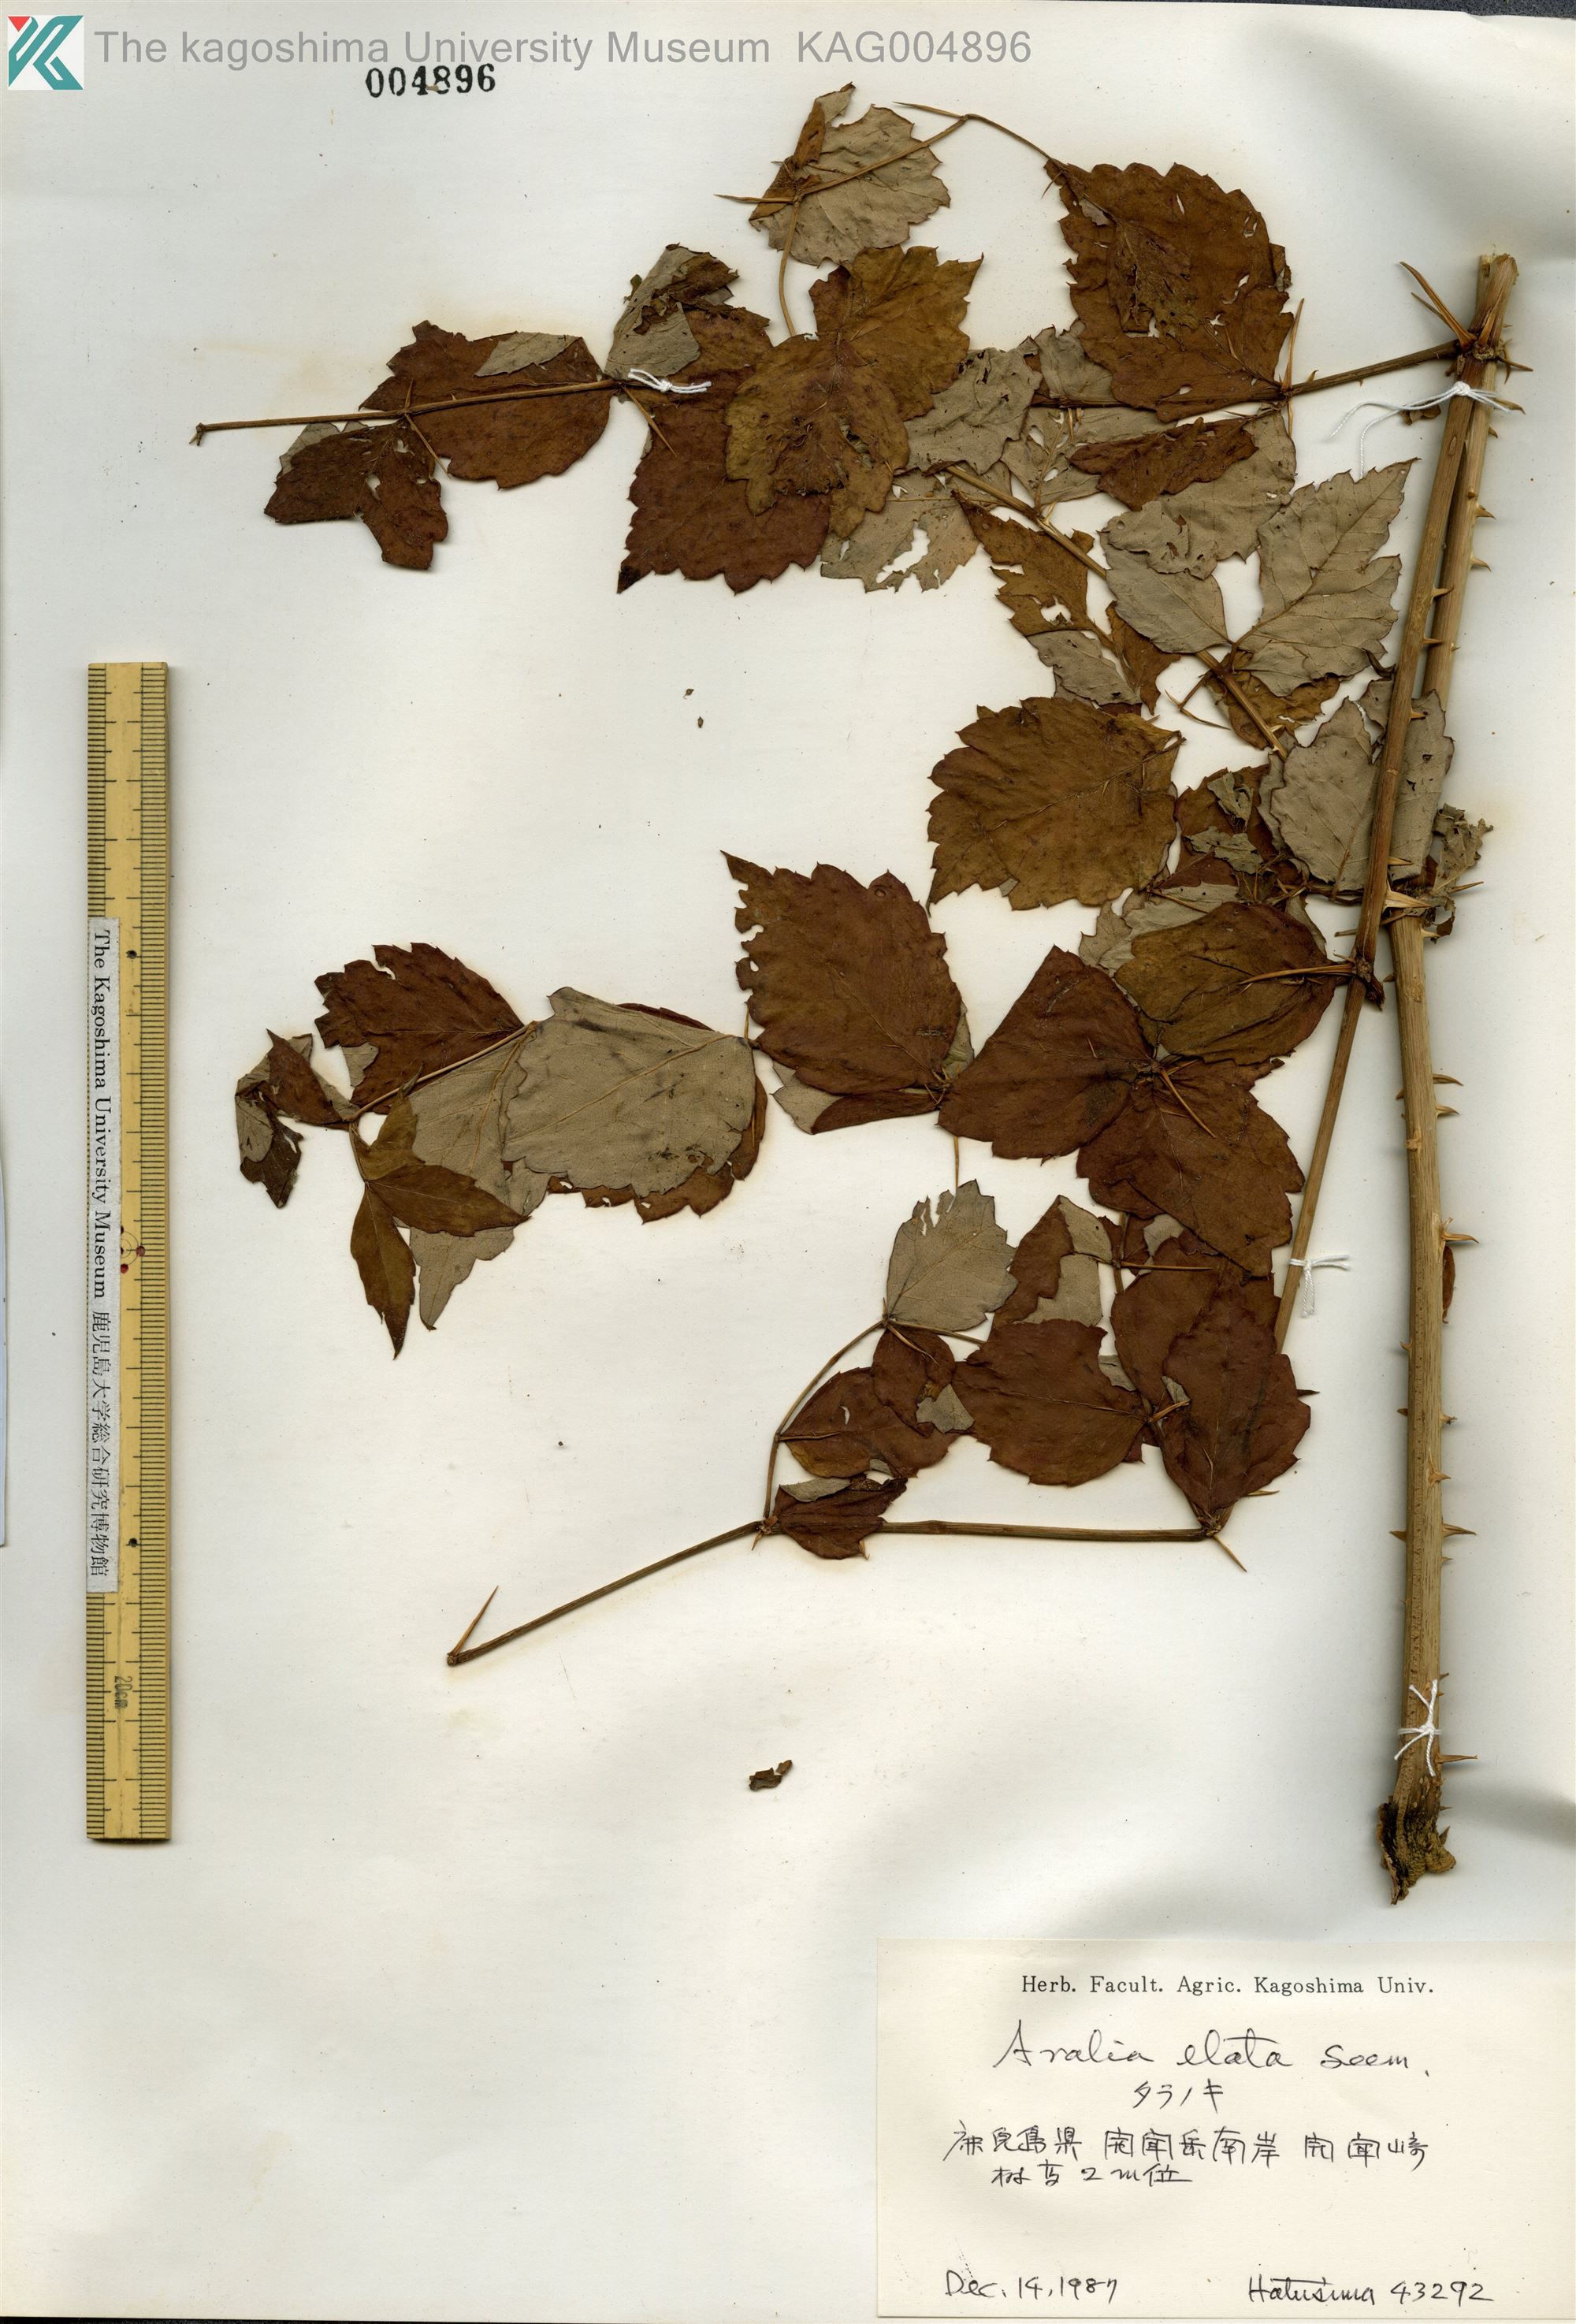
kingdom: Plantae
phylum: Tracheophyta
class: Magnoliopsida
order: Apiales
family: Araliaceae
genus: Aralia
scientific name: Aralia elata
